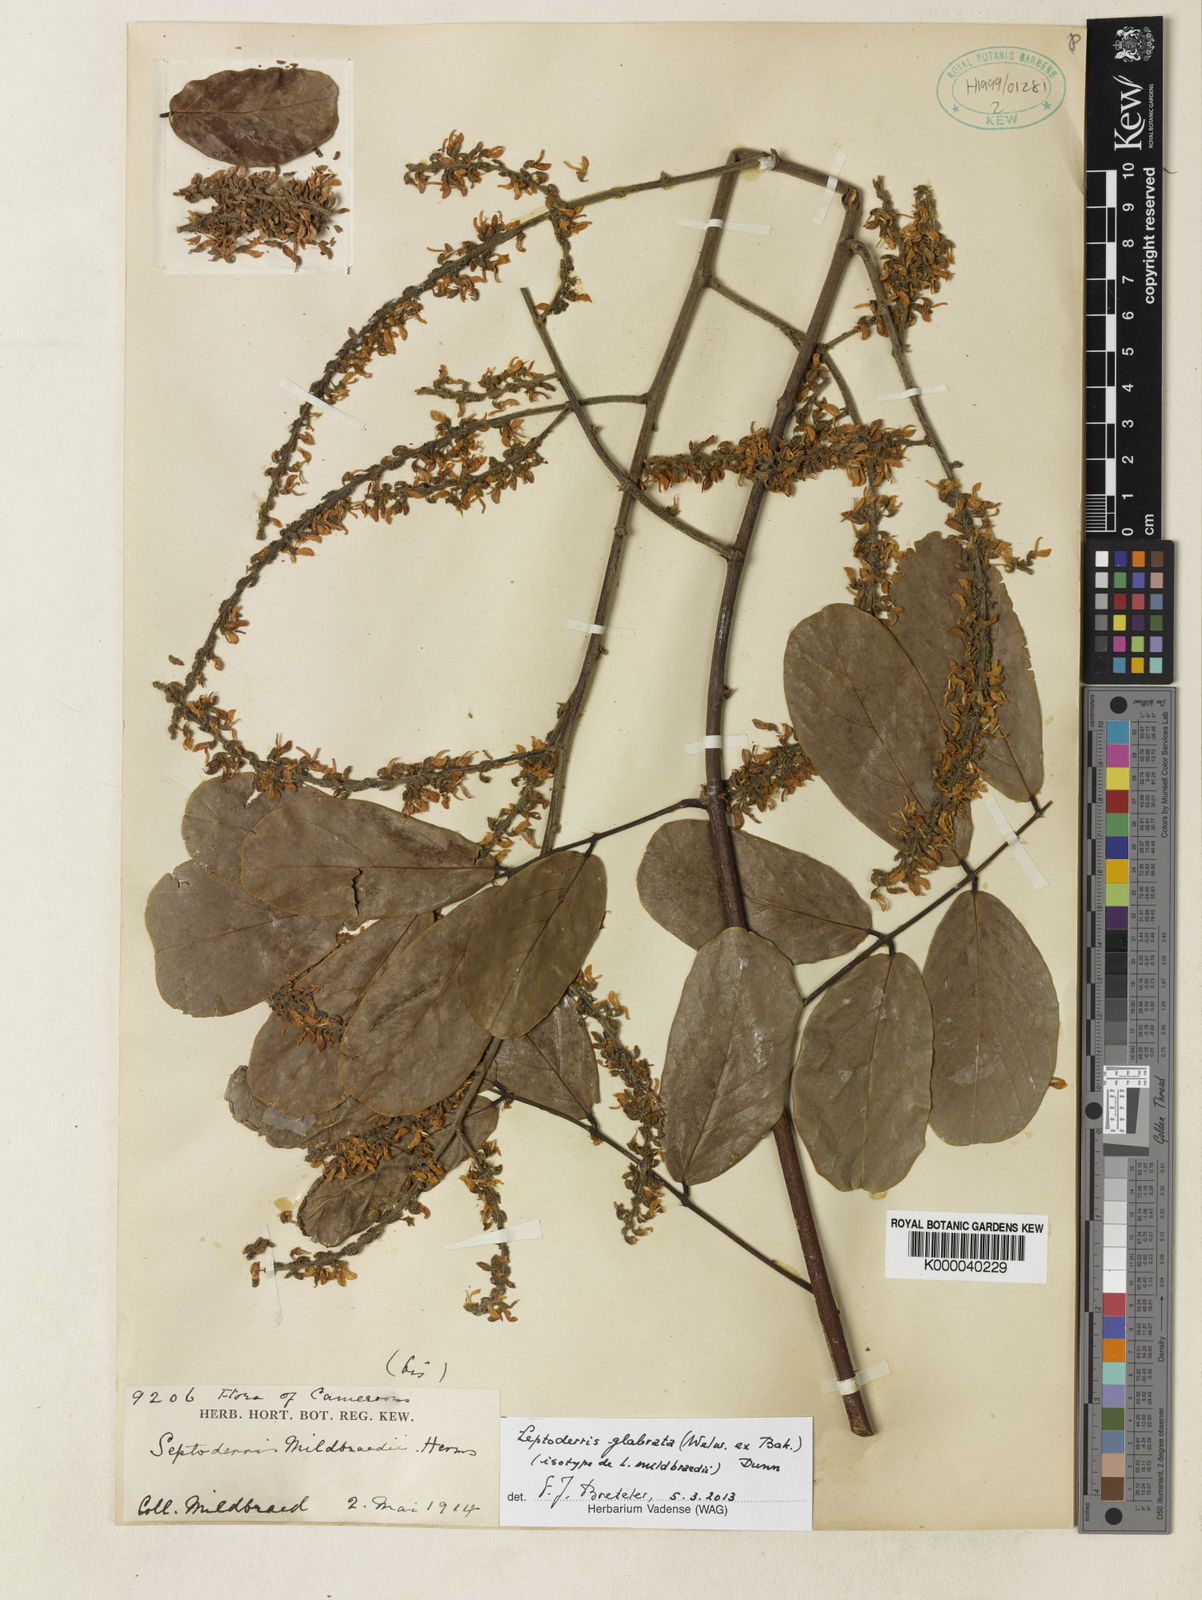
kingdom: Plantae
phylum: Tracheophyta
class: Magnoliopsida
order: Fabales
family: Fabaceae
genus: Leptoderris
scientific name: Leptoderris glabrata
